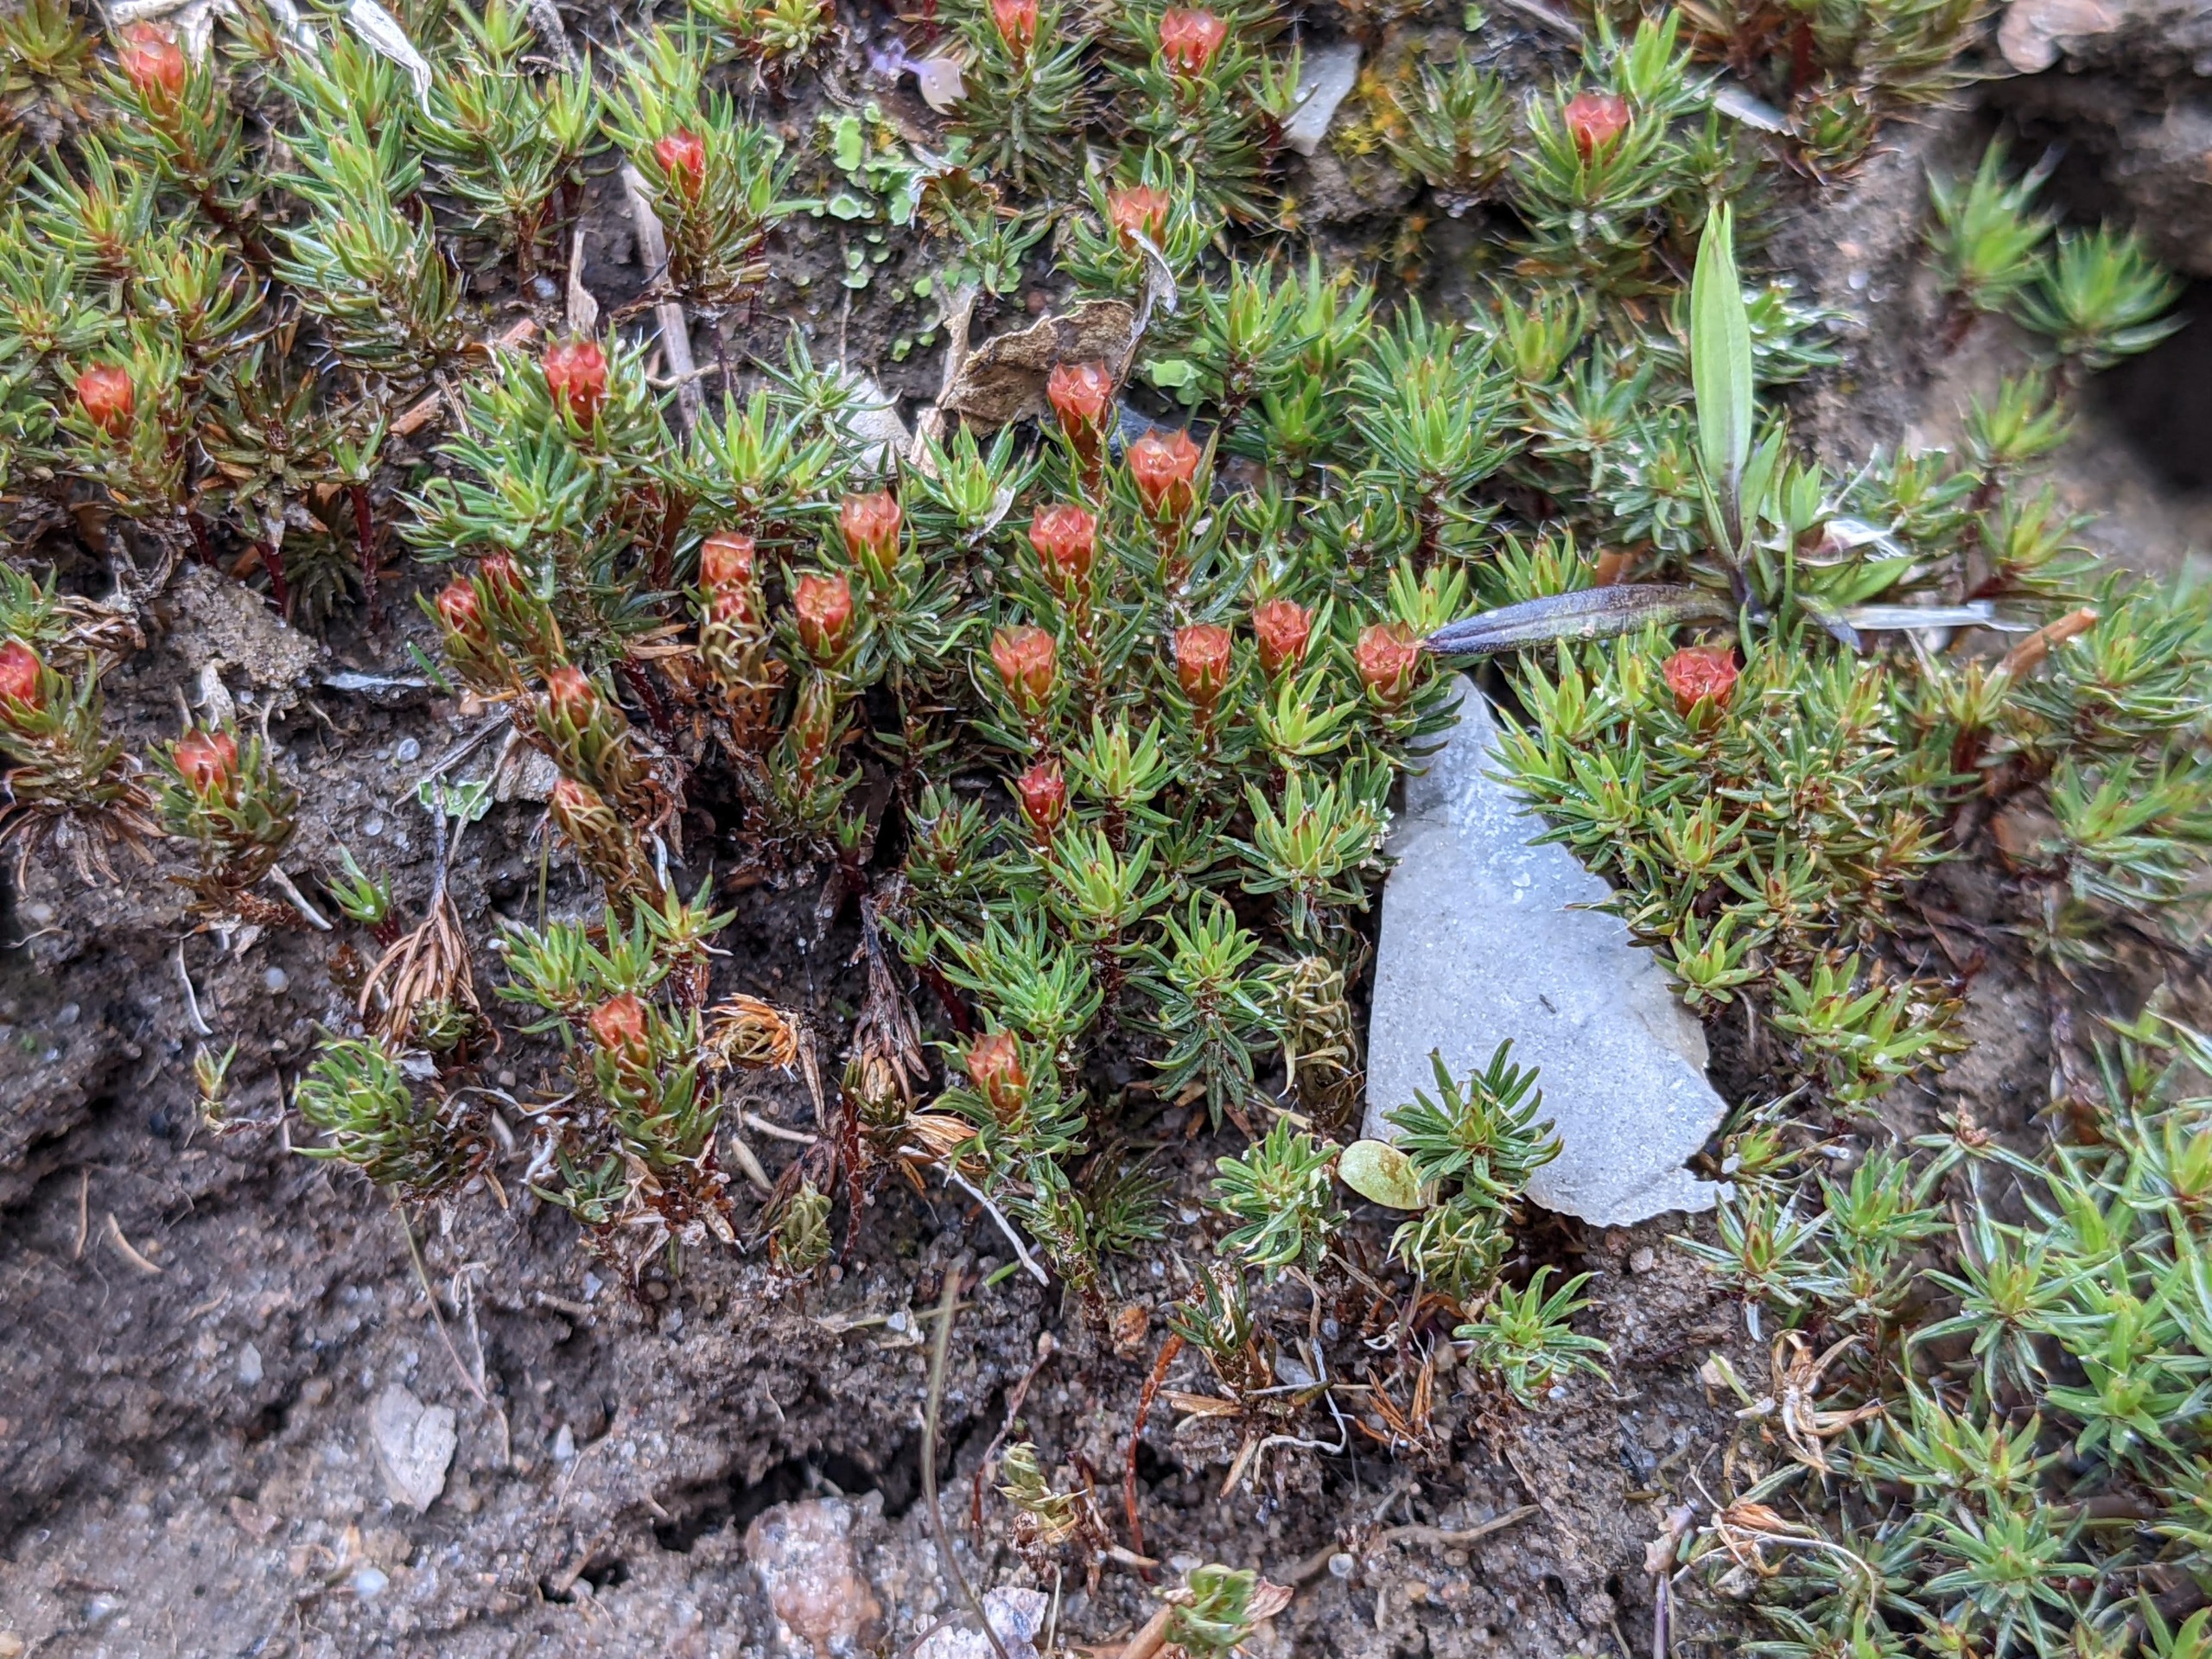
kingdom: Plantae
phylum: Bryophyta
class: Polytrichopsida
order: Polytrichales
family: Polytrichaceae
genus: Polytrichum
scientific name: Polytrichum piliferum
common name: Hårspidset jomfruhår
